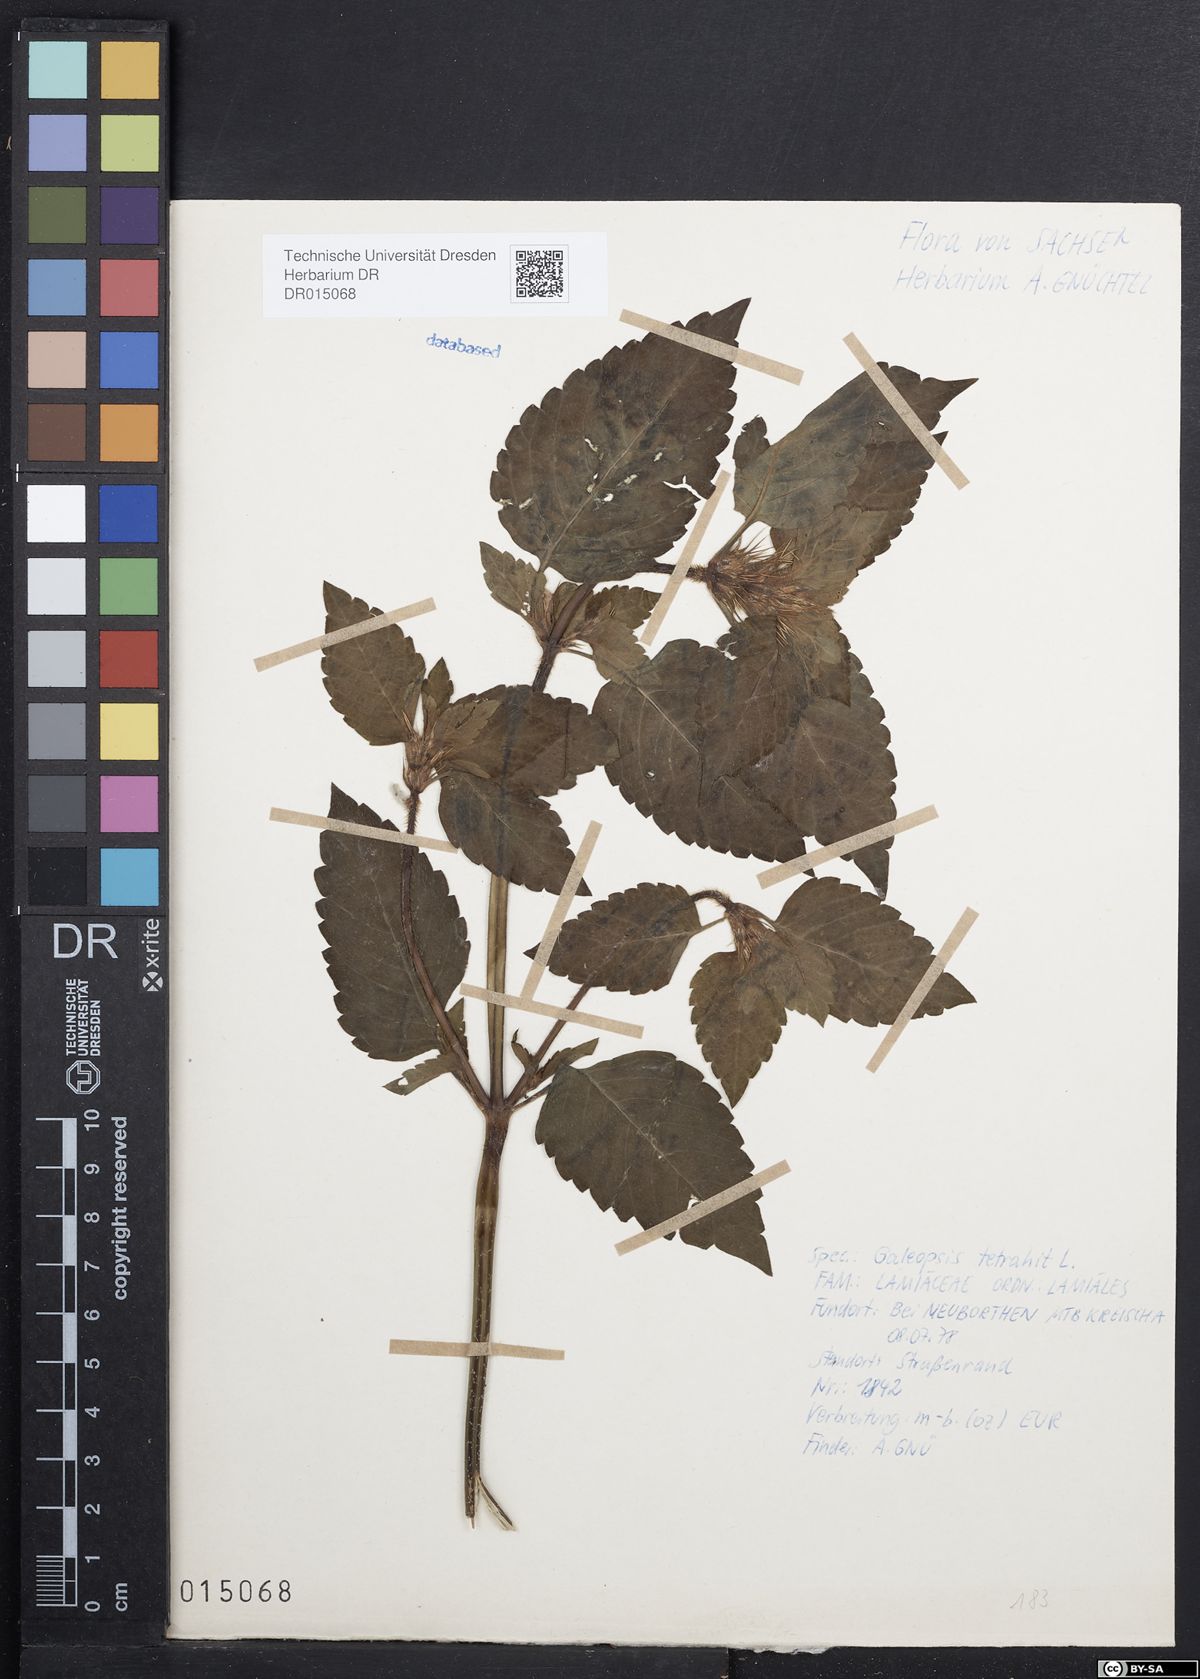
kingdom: Plantae
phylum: Tracheophyta
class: Magnoliopsida
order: Lamiales
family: Lamiaceae
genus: Galeopsis
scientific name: Galeopsis tetrahit
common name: Common hemp-nettle
